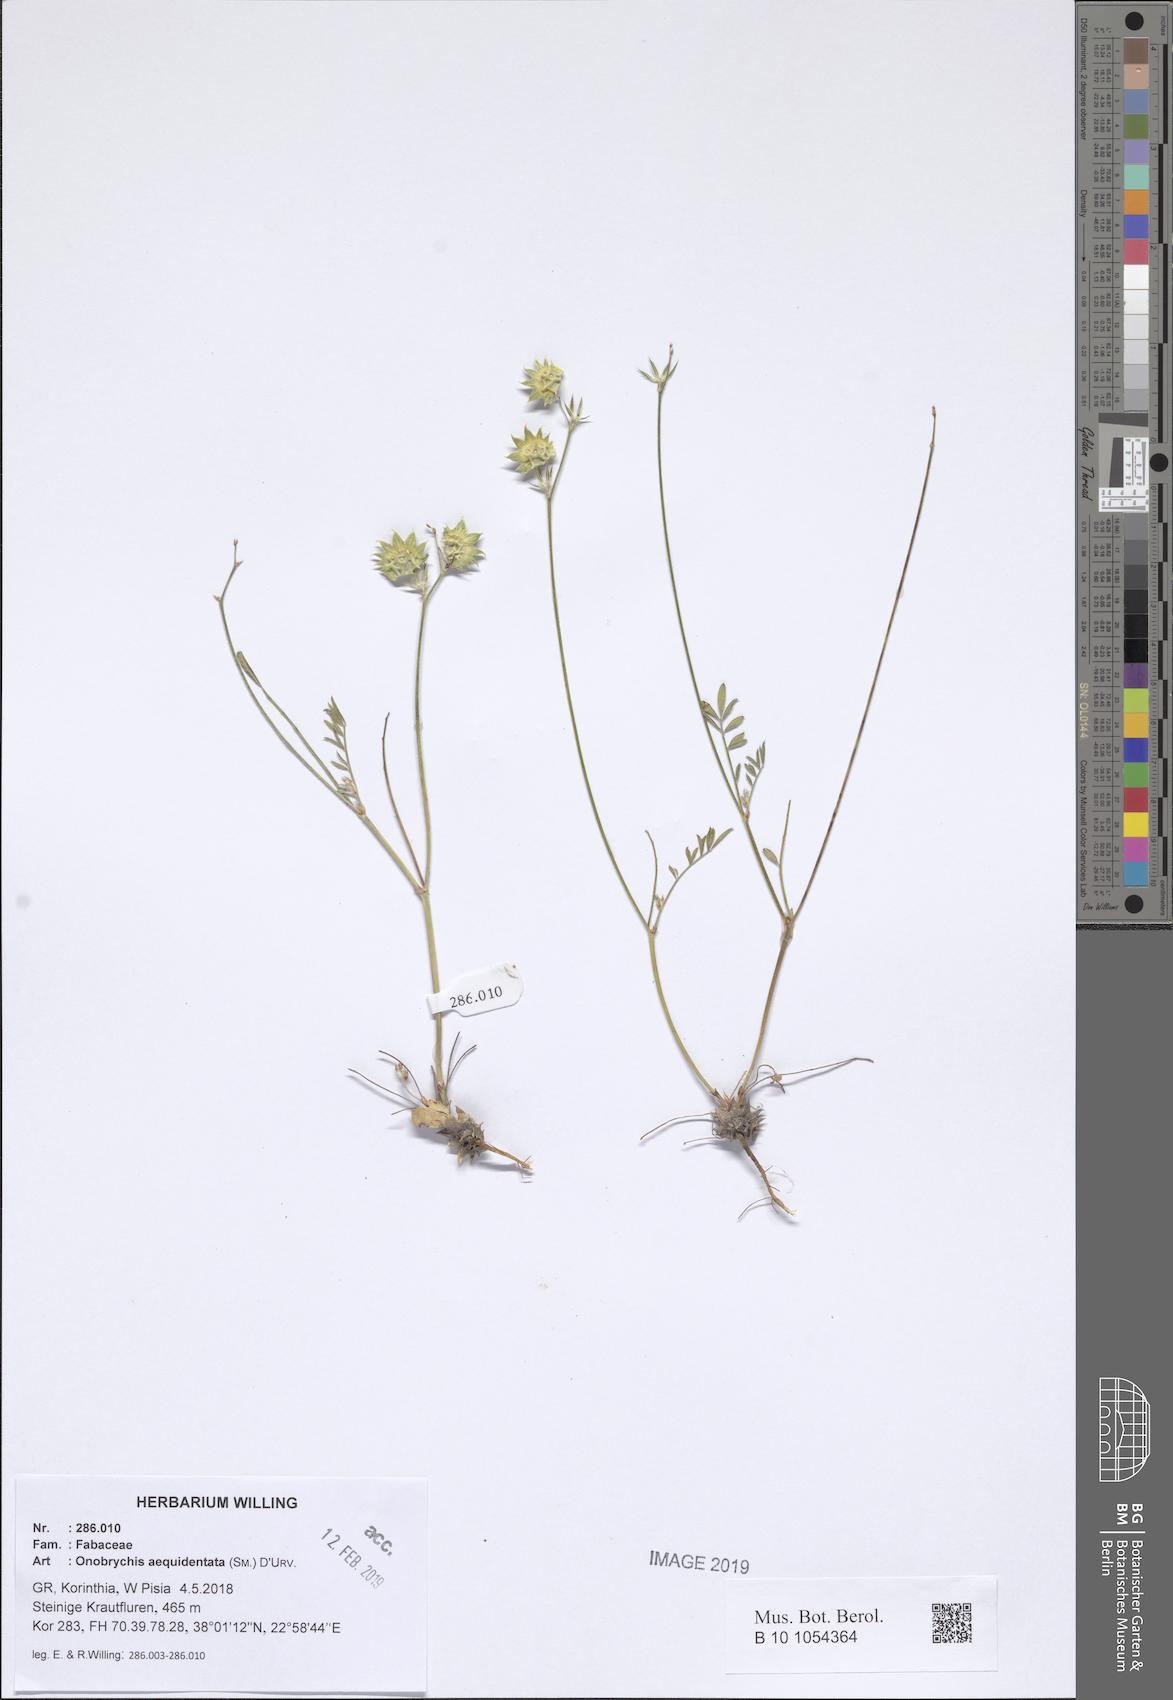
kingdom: Plantae
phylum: Tracheophyta
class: Magnoliopsida
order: Fabales
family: Fabaceae
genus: Onobrychis
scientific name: Onobrychis aequidentata
